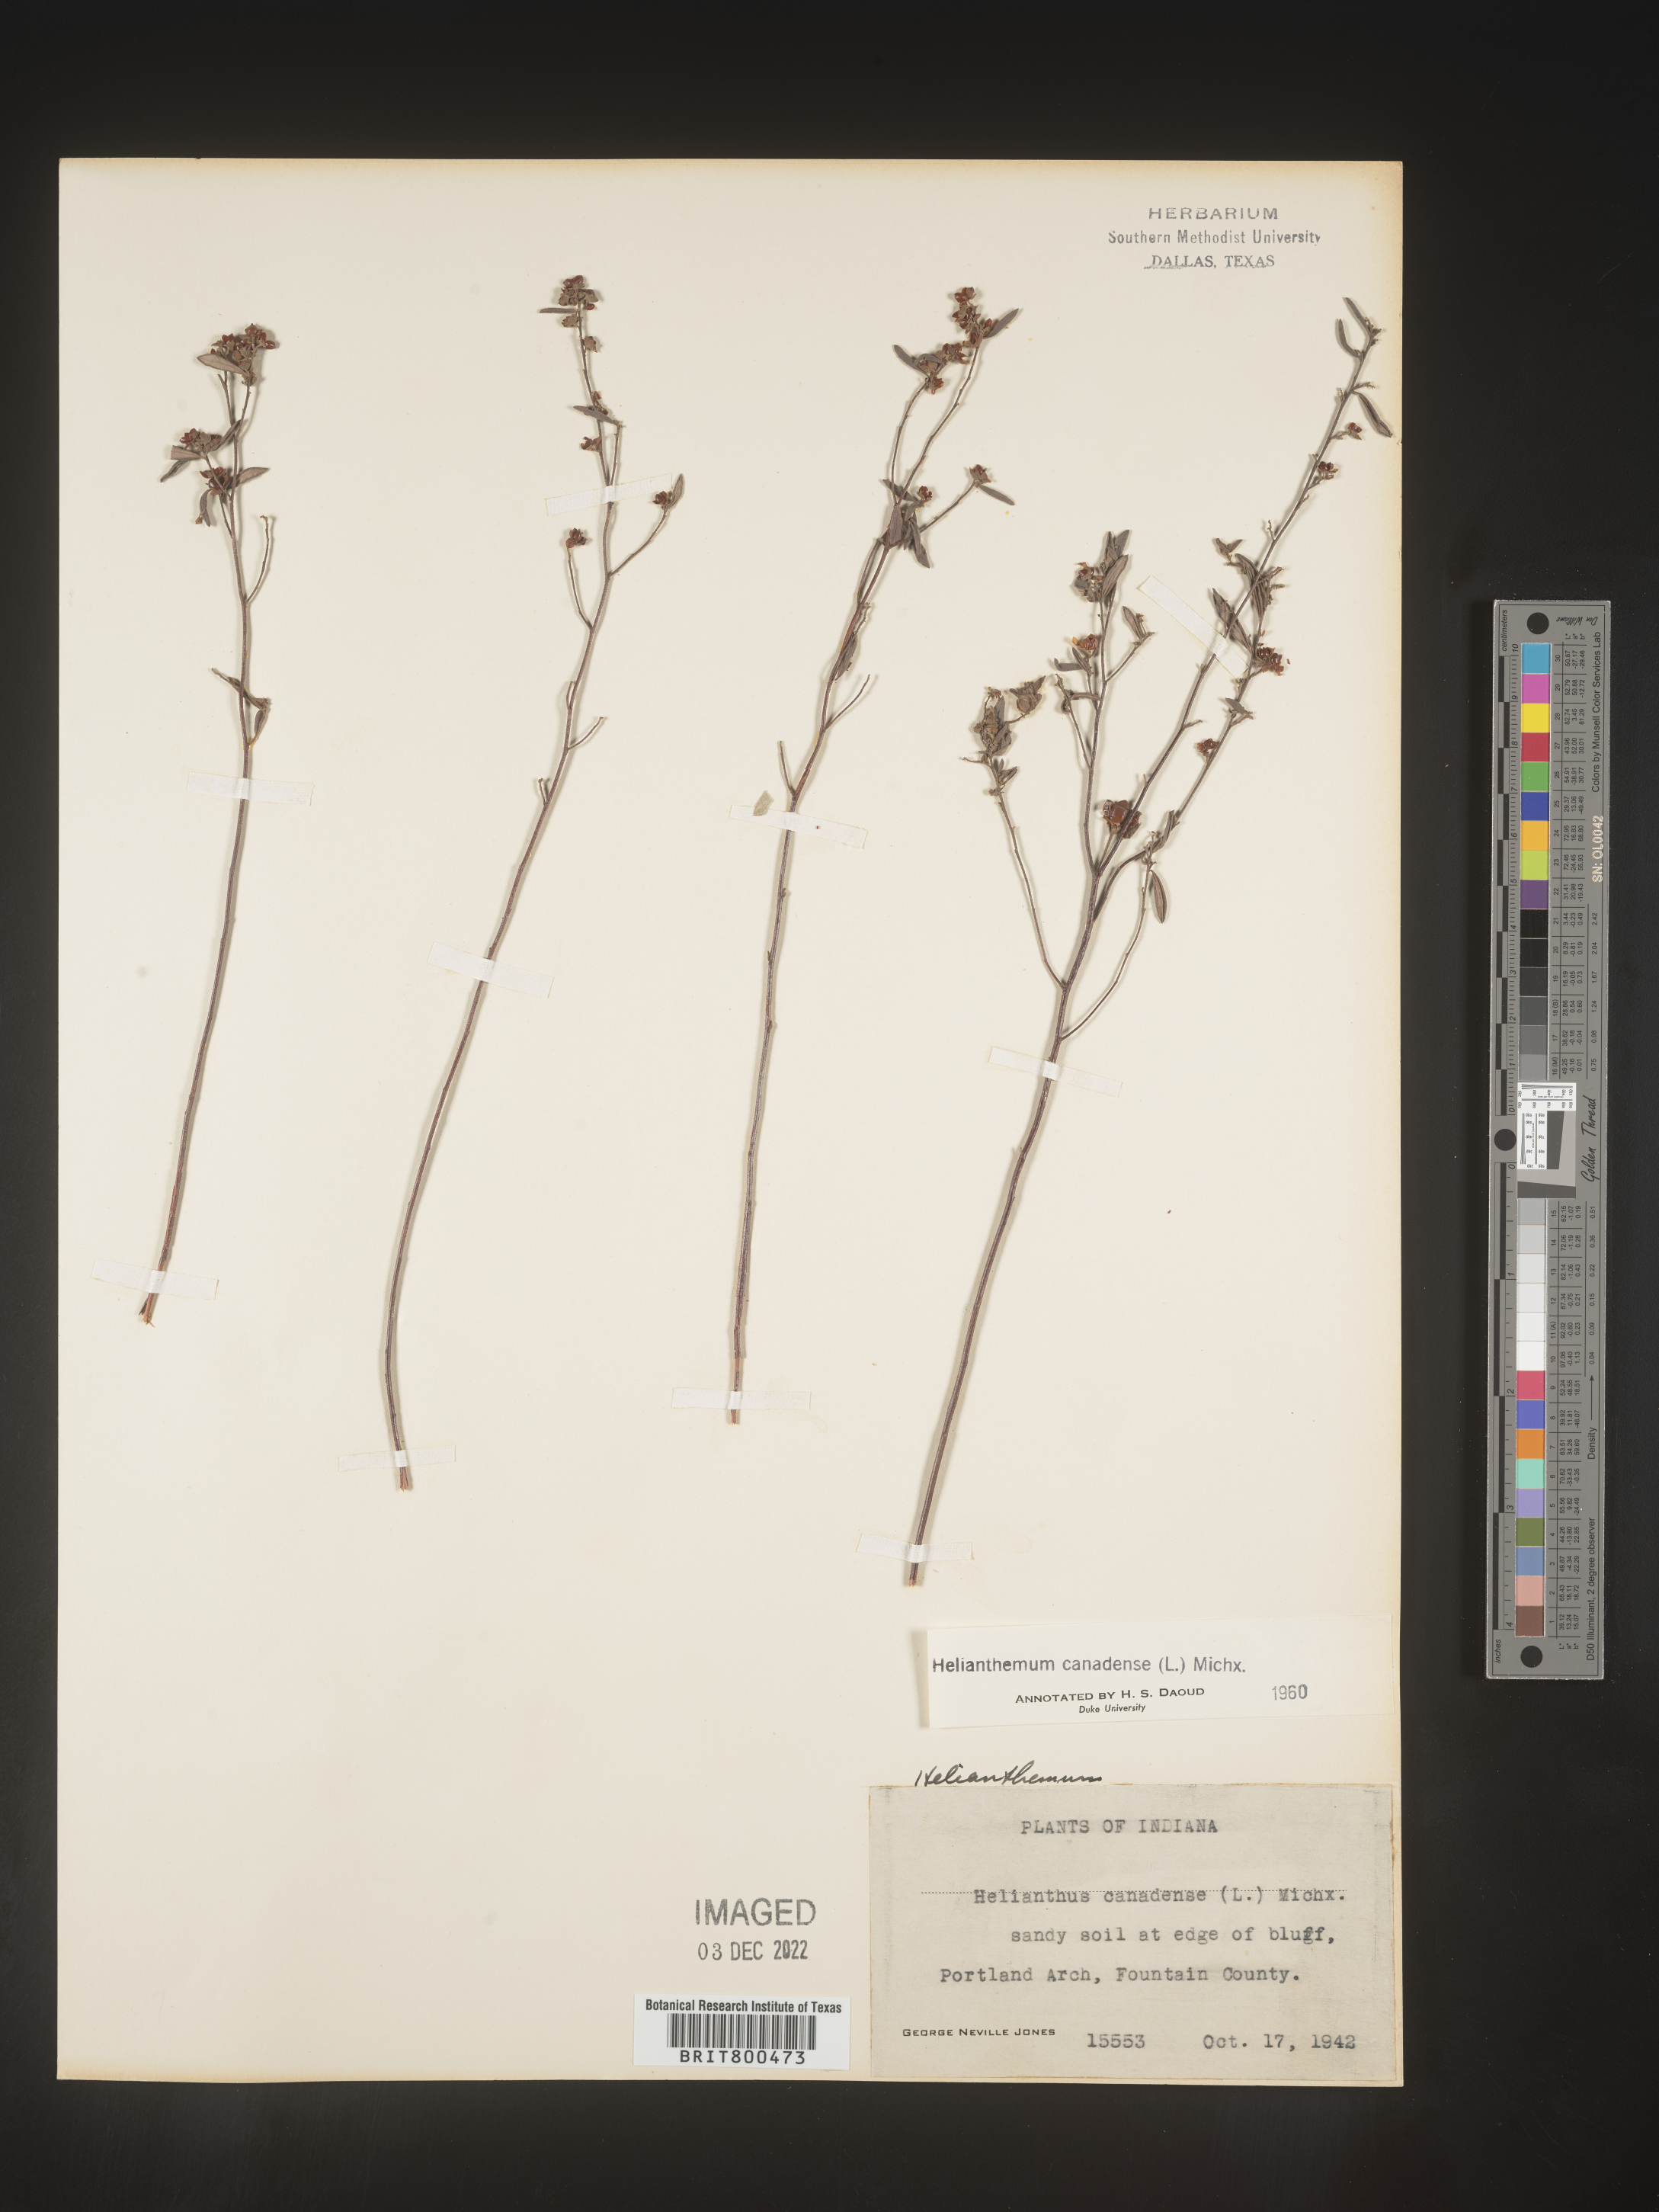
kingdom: Plantae
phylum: Tracheophyta
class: Magnoliopsida
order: Malvales
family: Cistaceae
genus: Crocanthemum
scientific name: Crocanthemum canadense
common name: Canada frostweed
